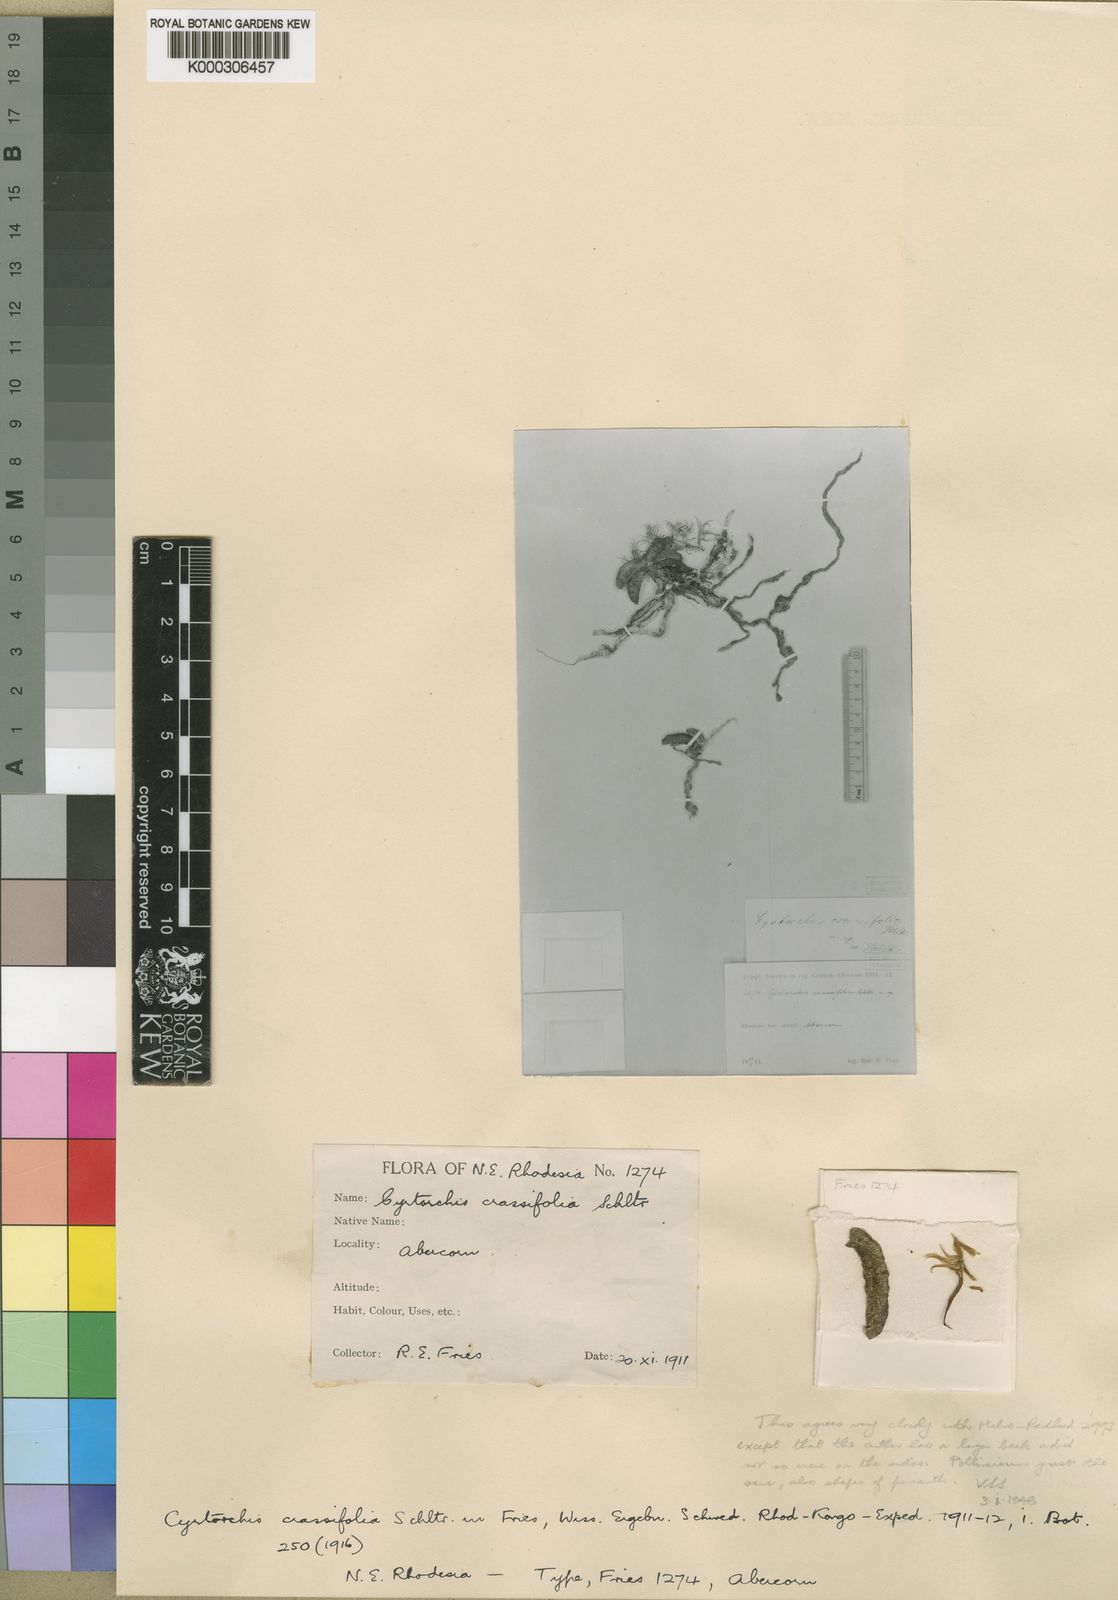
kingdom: Plantae
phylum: Tracheophyta
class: Liliopsida
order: Asparagales
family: Orchidaceae
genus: Cyrtorchis
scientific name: Cyrtorchis crassifolia
